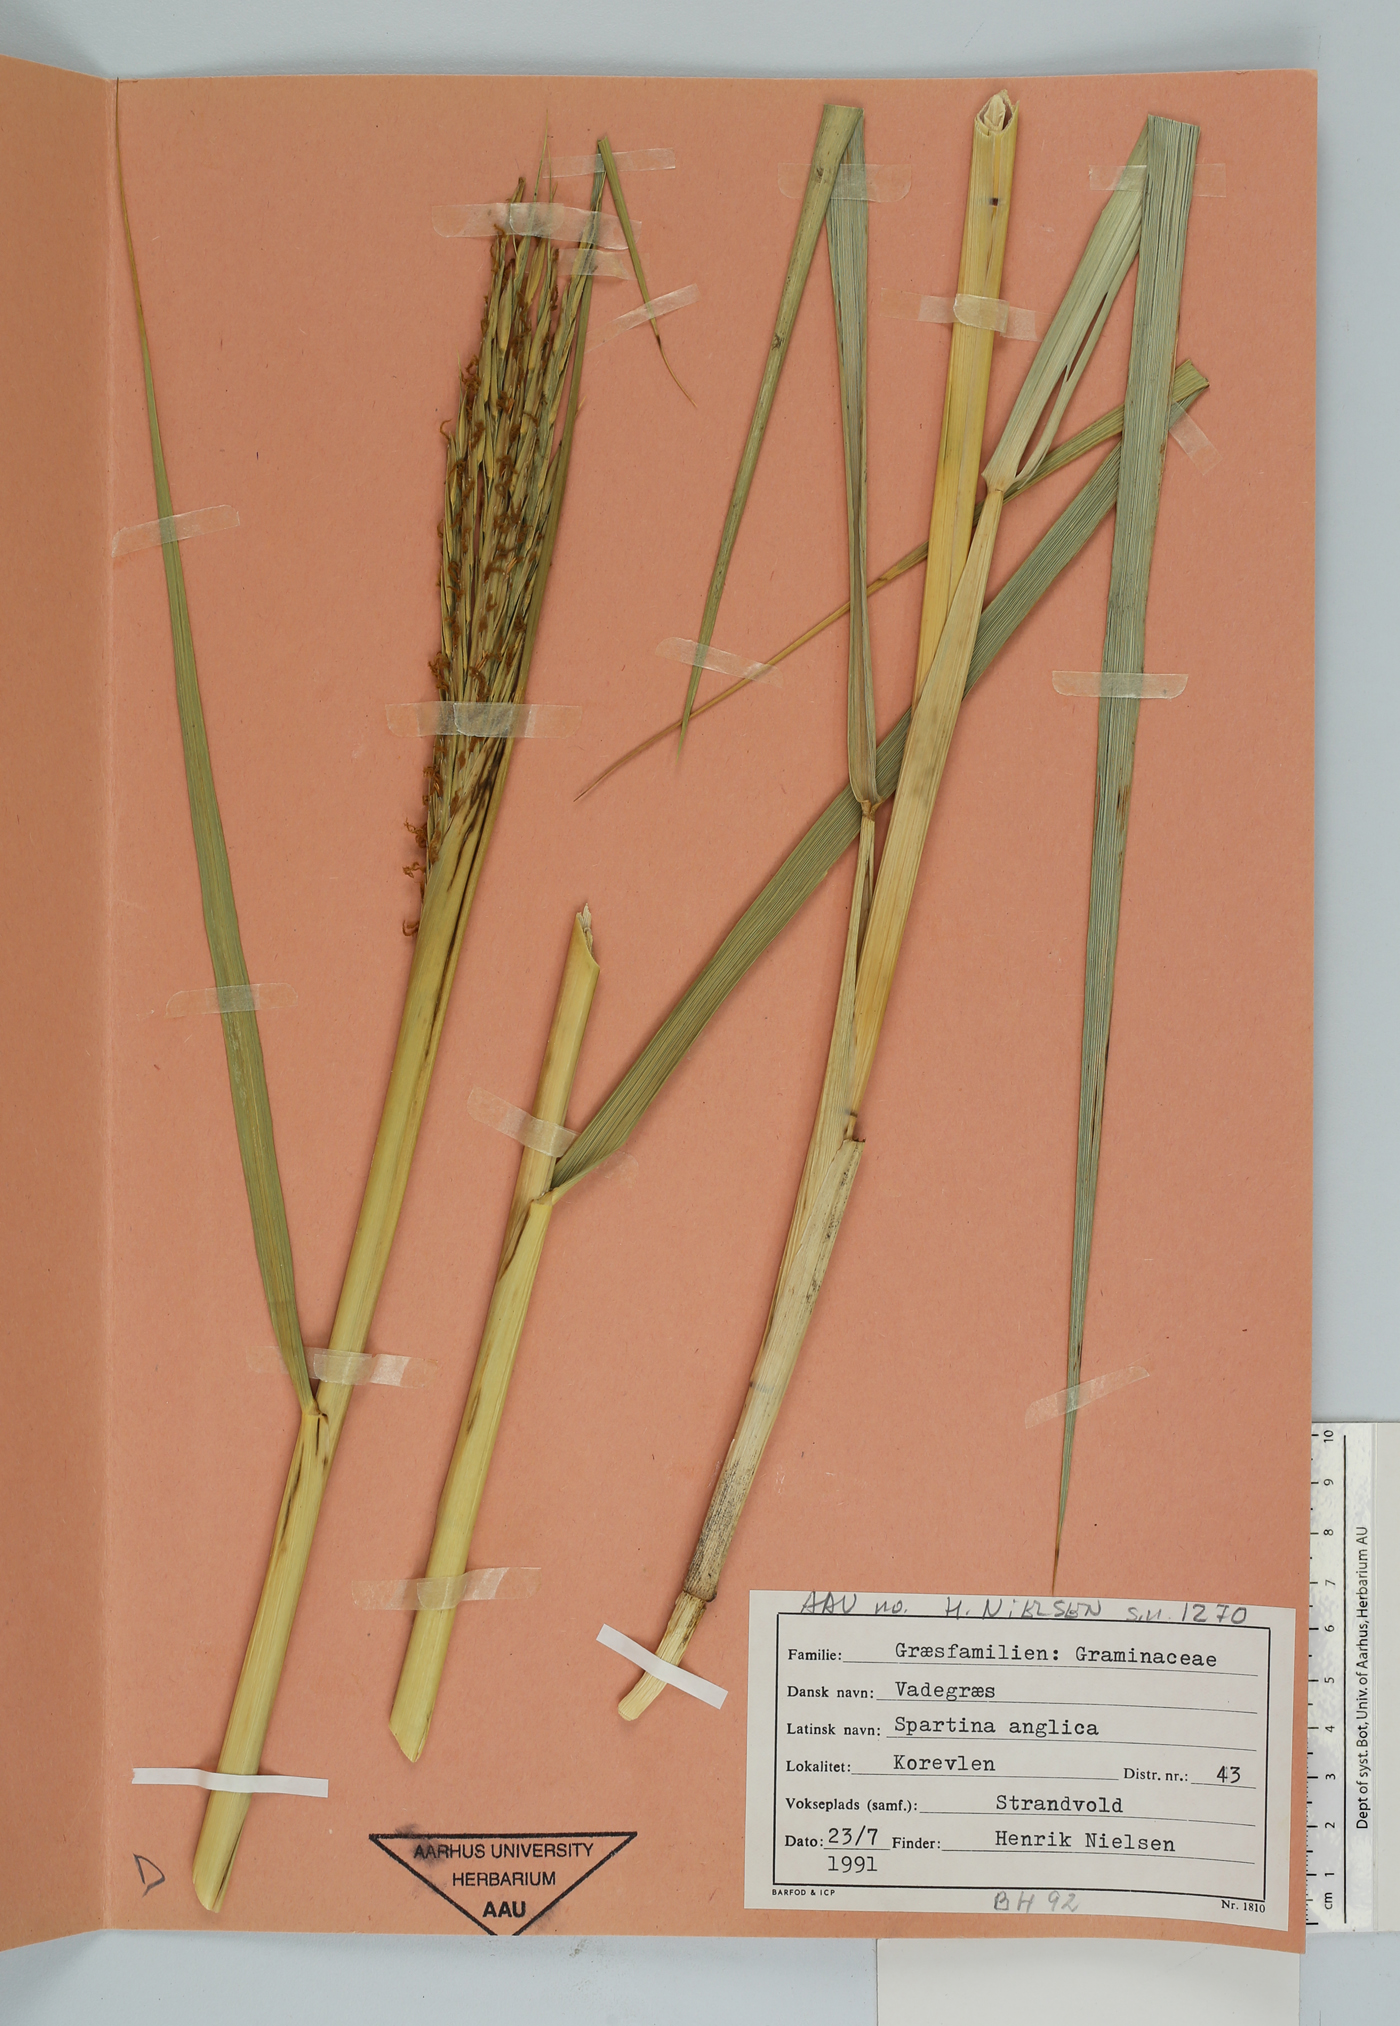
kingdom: Plantae
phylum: Tracheophyta
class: Liliopsida
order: Poales
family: Poaceae
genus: Sporobolus
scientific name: Sporobolus anglicus
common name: English cordgrass
